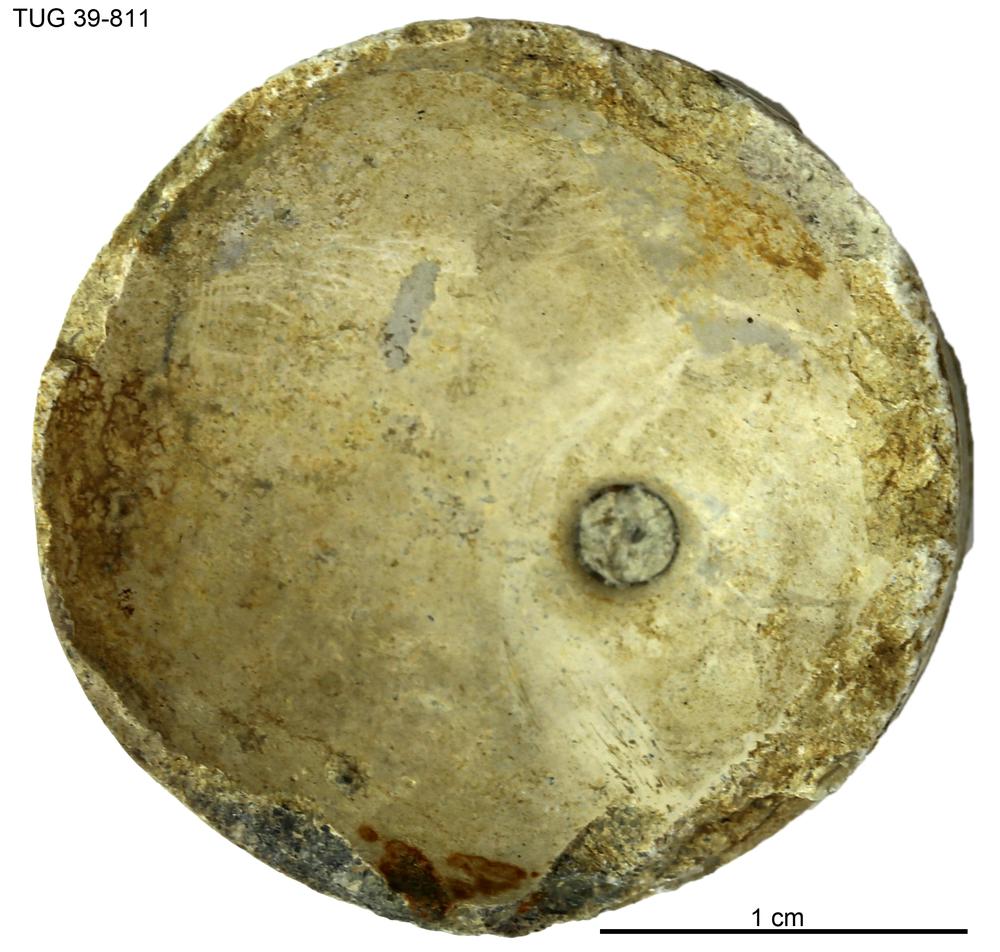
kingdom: Animalia
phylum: Mollusca
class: Cephalopoda
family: Lituitidae
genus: Lituites
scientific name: Lituites lituus
